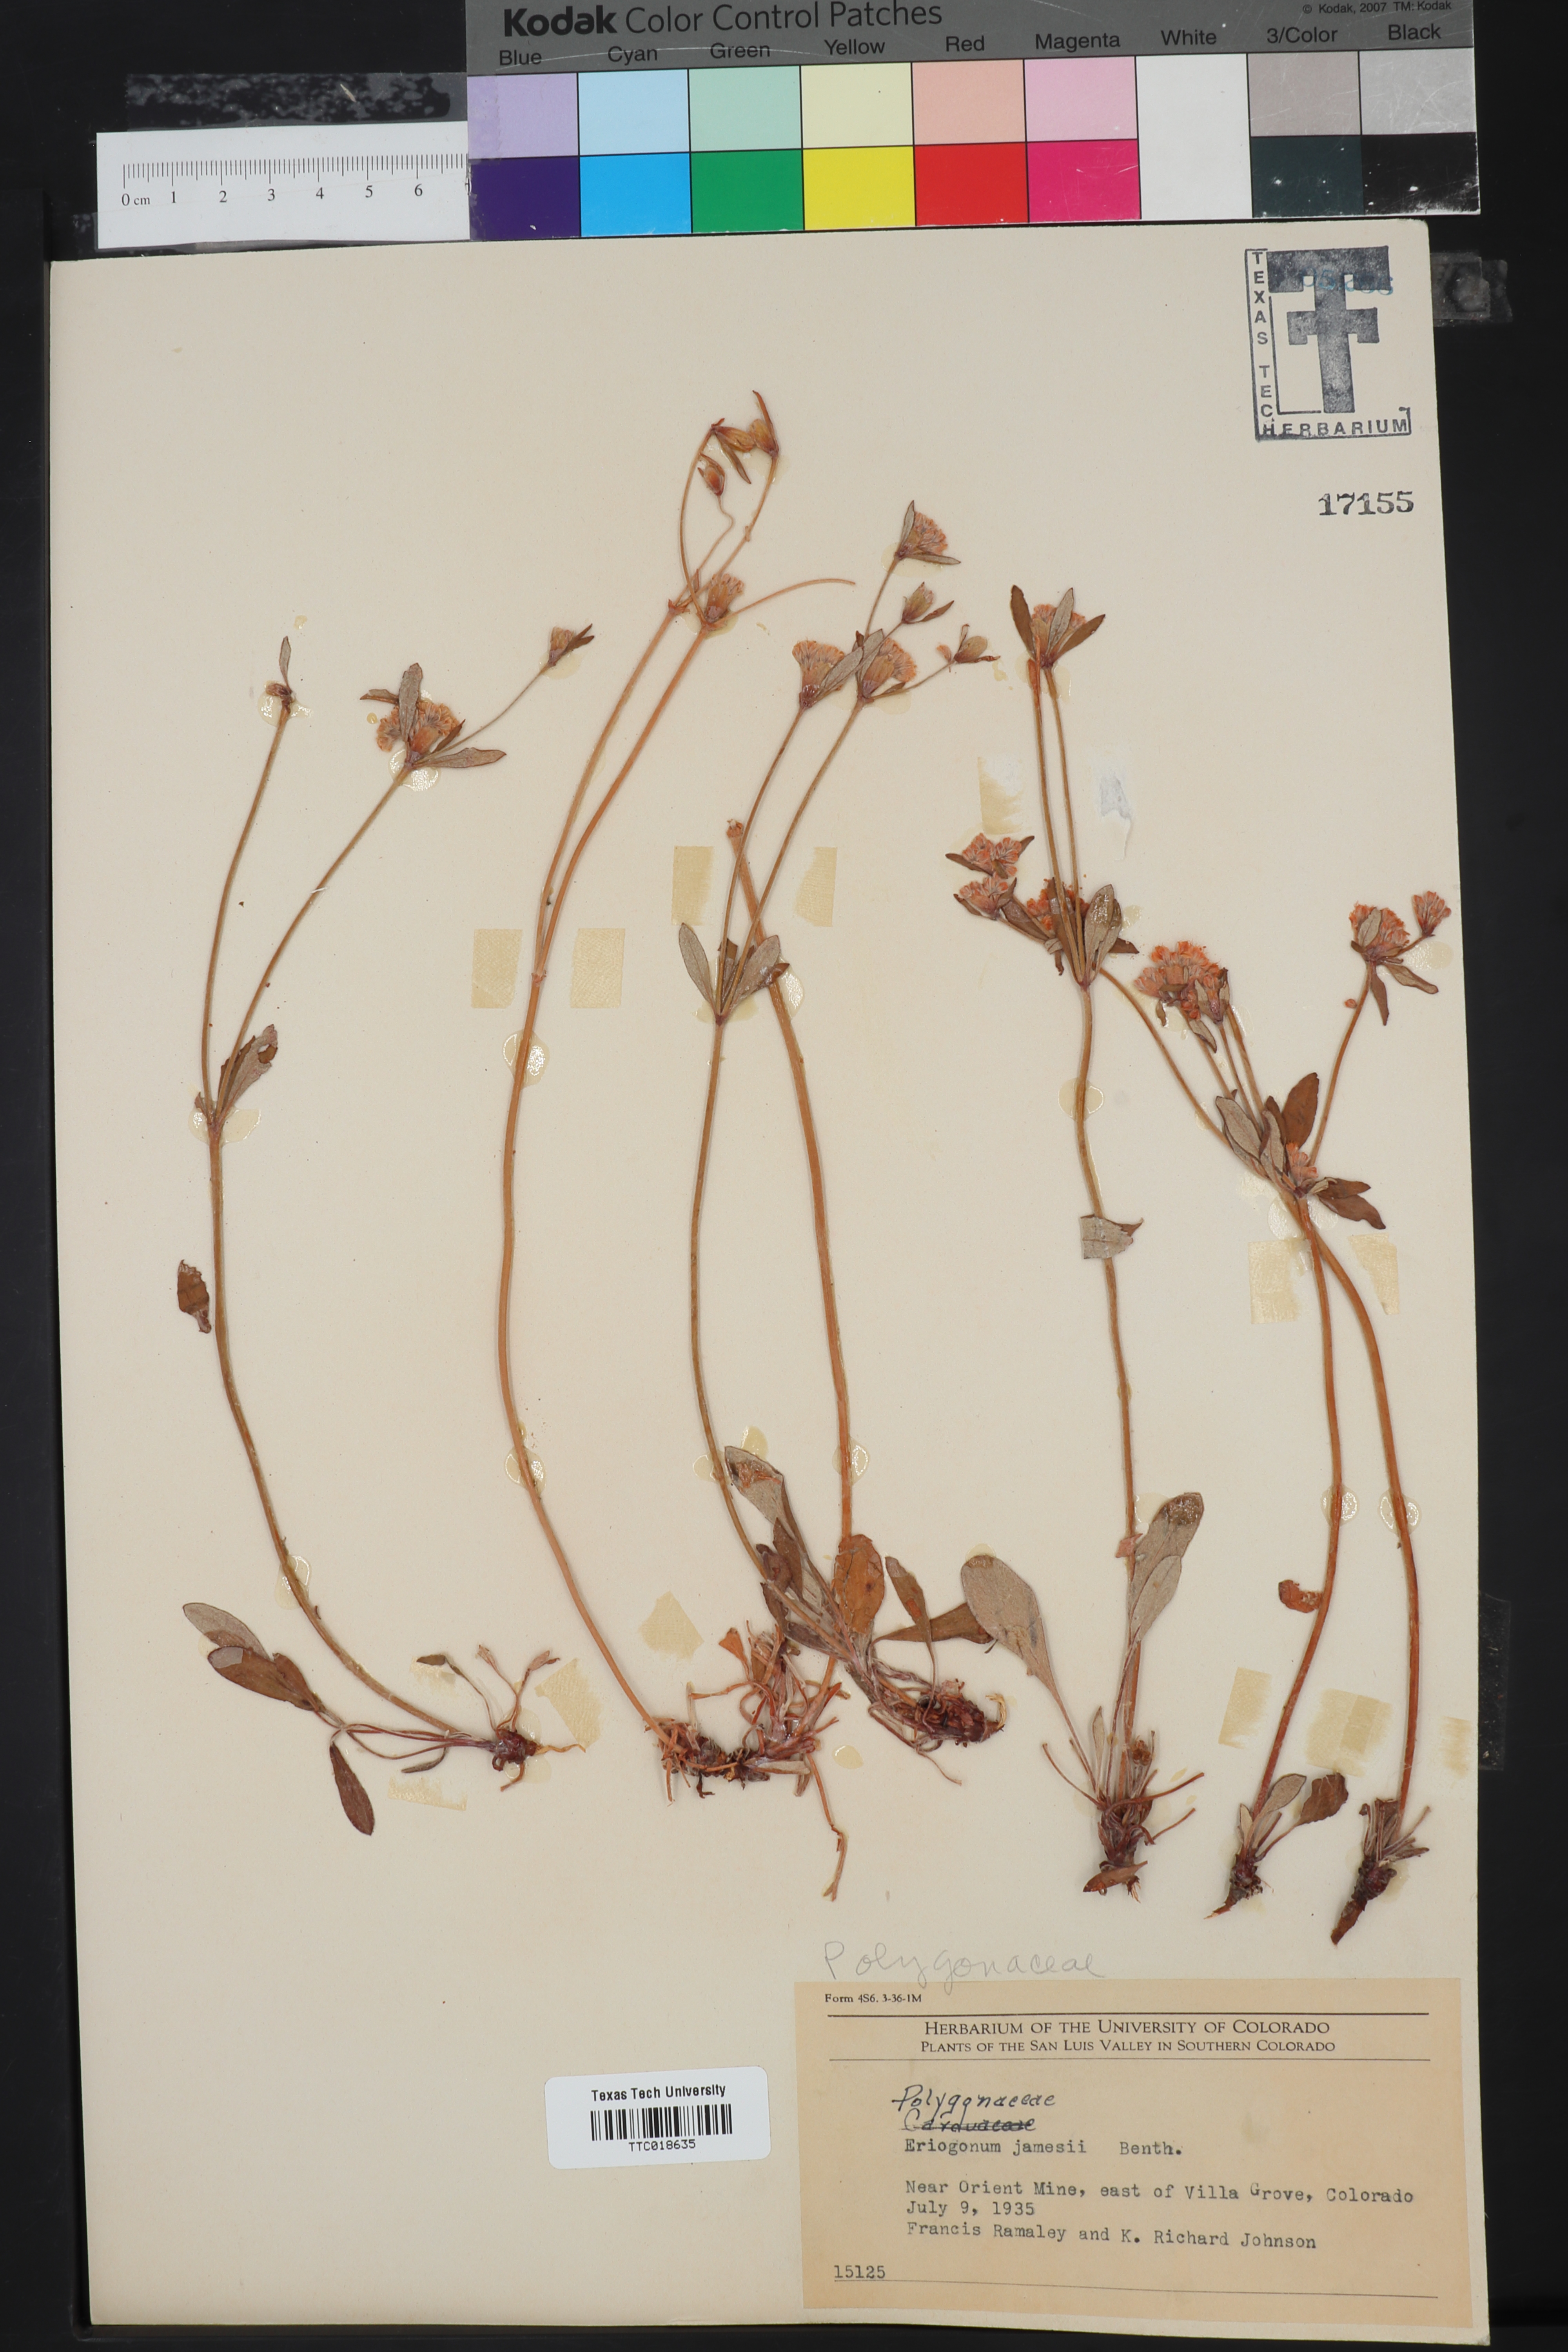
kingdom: Plantae
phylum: Tracheophyta
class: Magnoliopsida
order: Caryophyllales
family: Polygonaceae
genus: Eriogonum
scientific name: Eriogonum jamesii
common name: Antelope-sage
